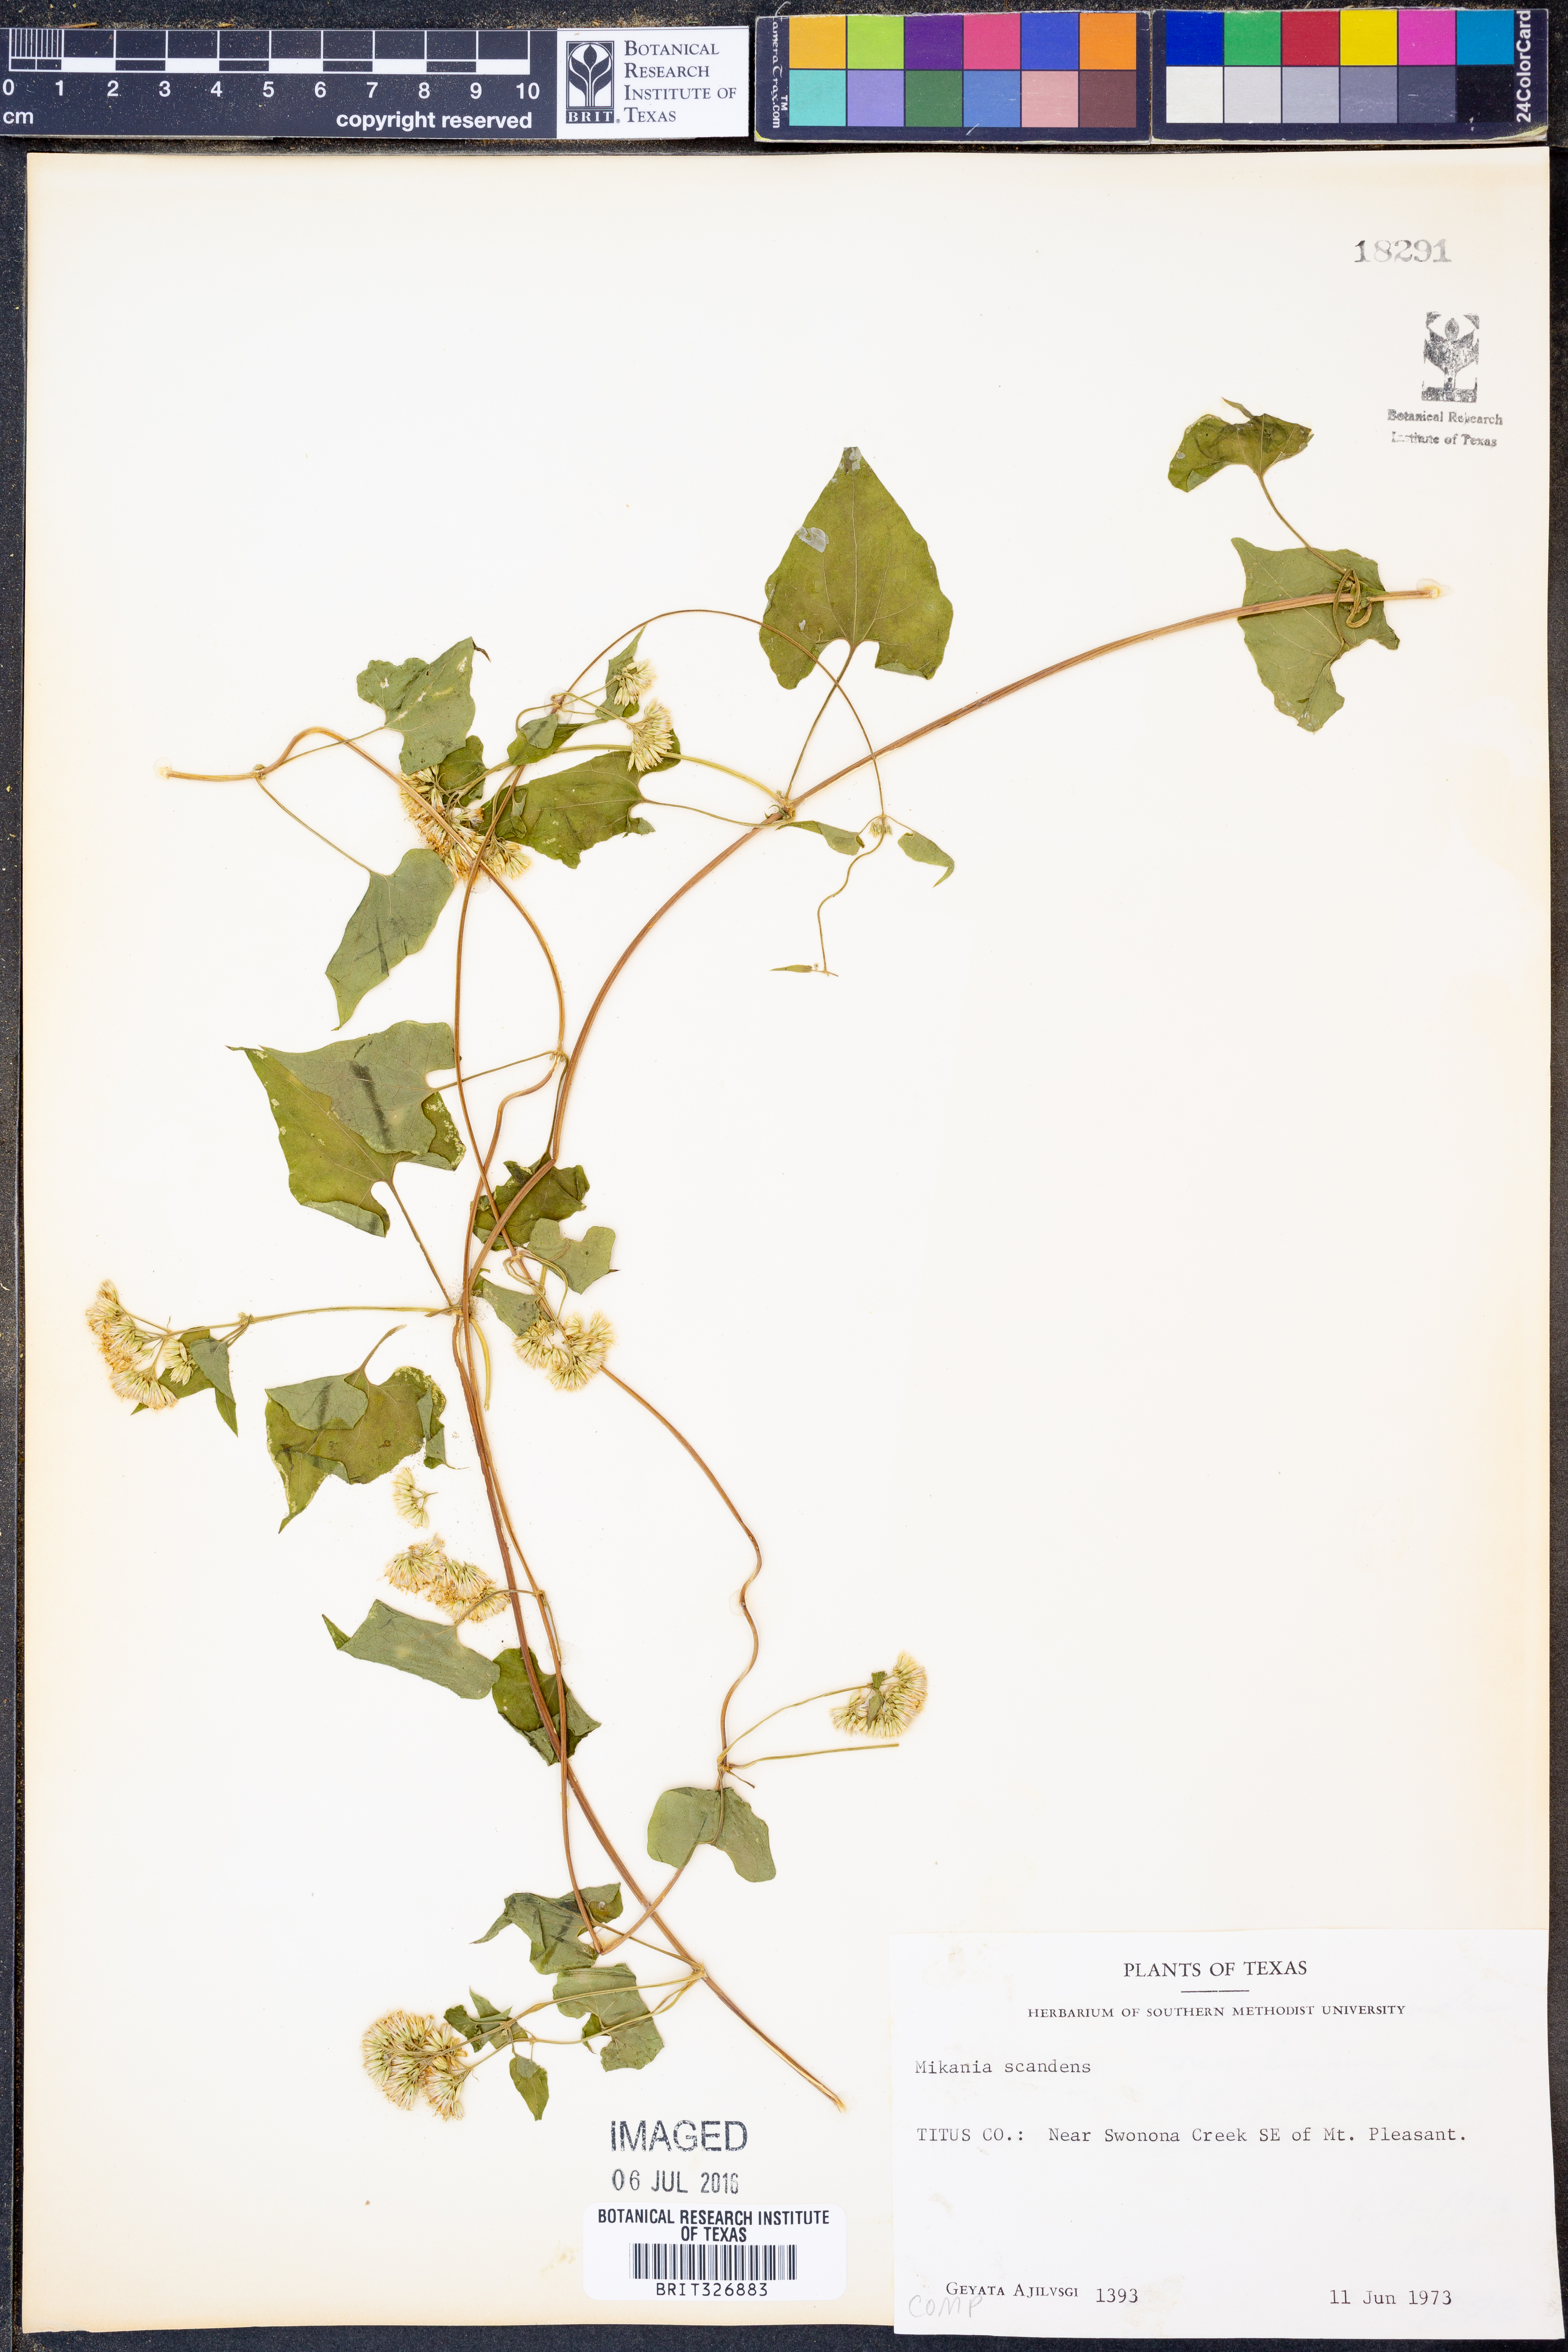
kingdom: Plantae
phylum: Tracheophyta
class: Magnoliopsida
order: Asterales
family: Asteraceae
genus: Mikania
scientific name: Mikania scandens
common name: Climbing hempvine
